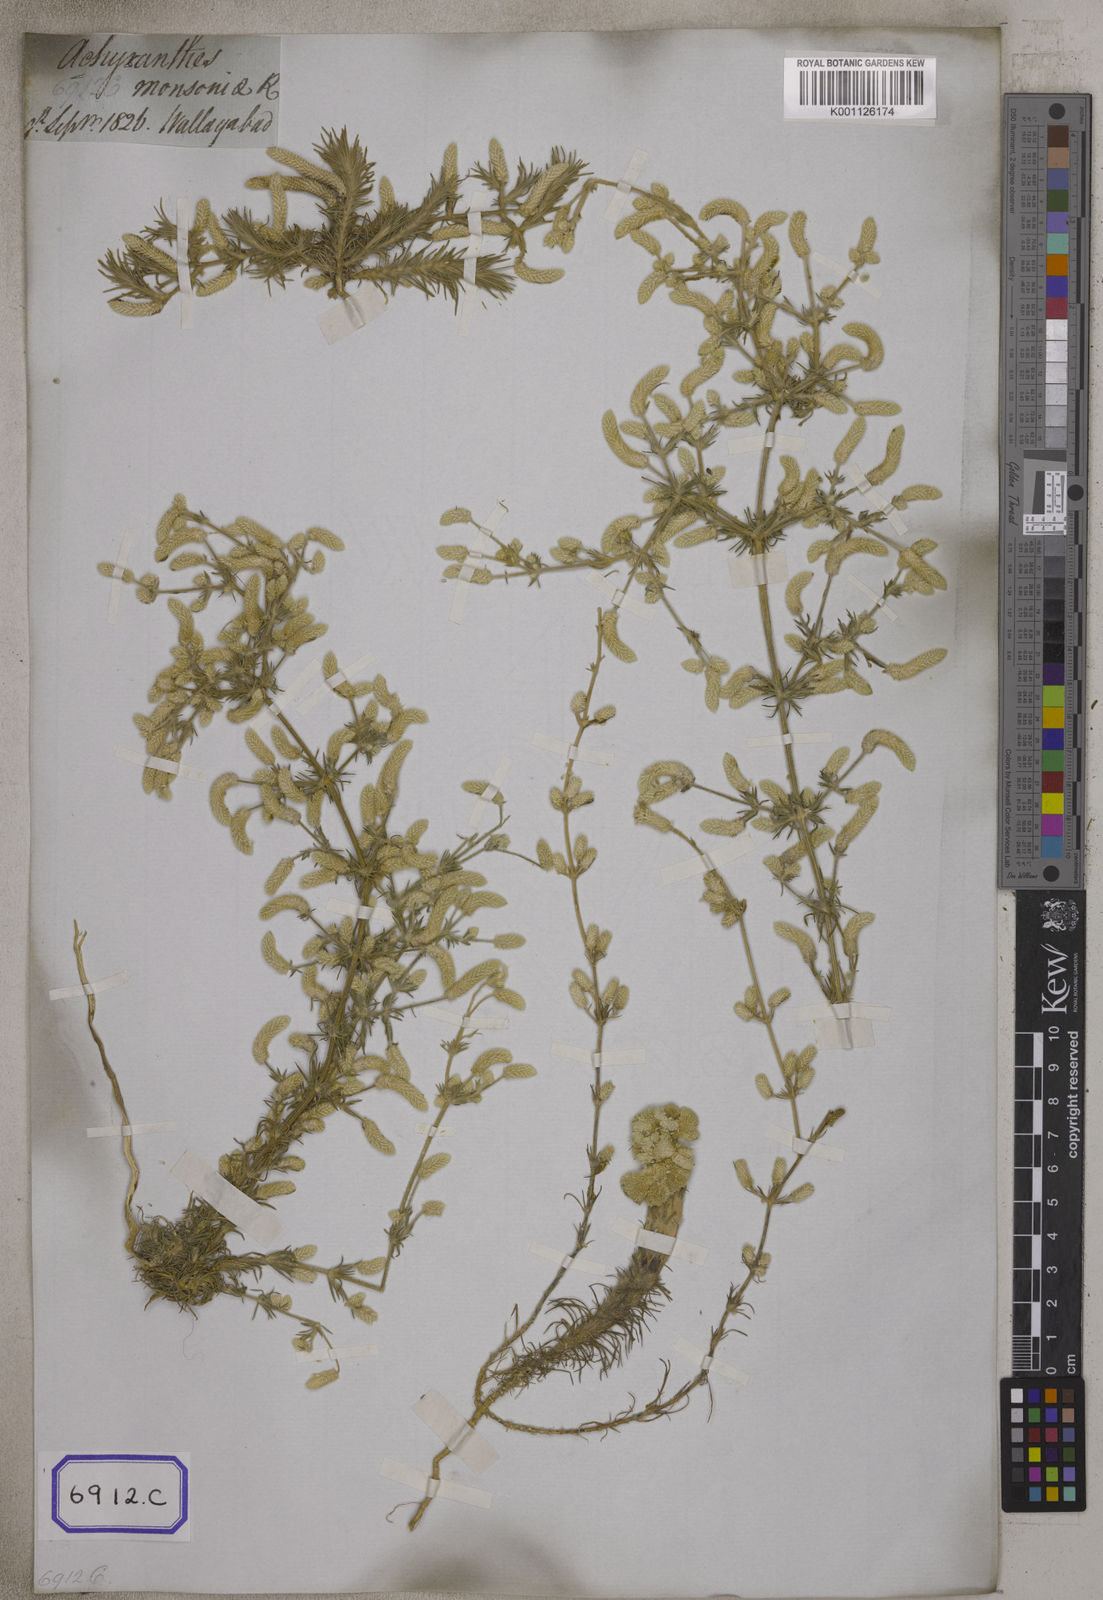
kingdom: Plantae
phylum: Tracheophyta
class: Magnoliopsida
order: Caryophyllales
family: Amaranthaceae
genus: Aerva
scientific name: Aerva
